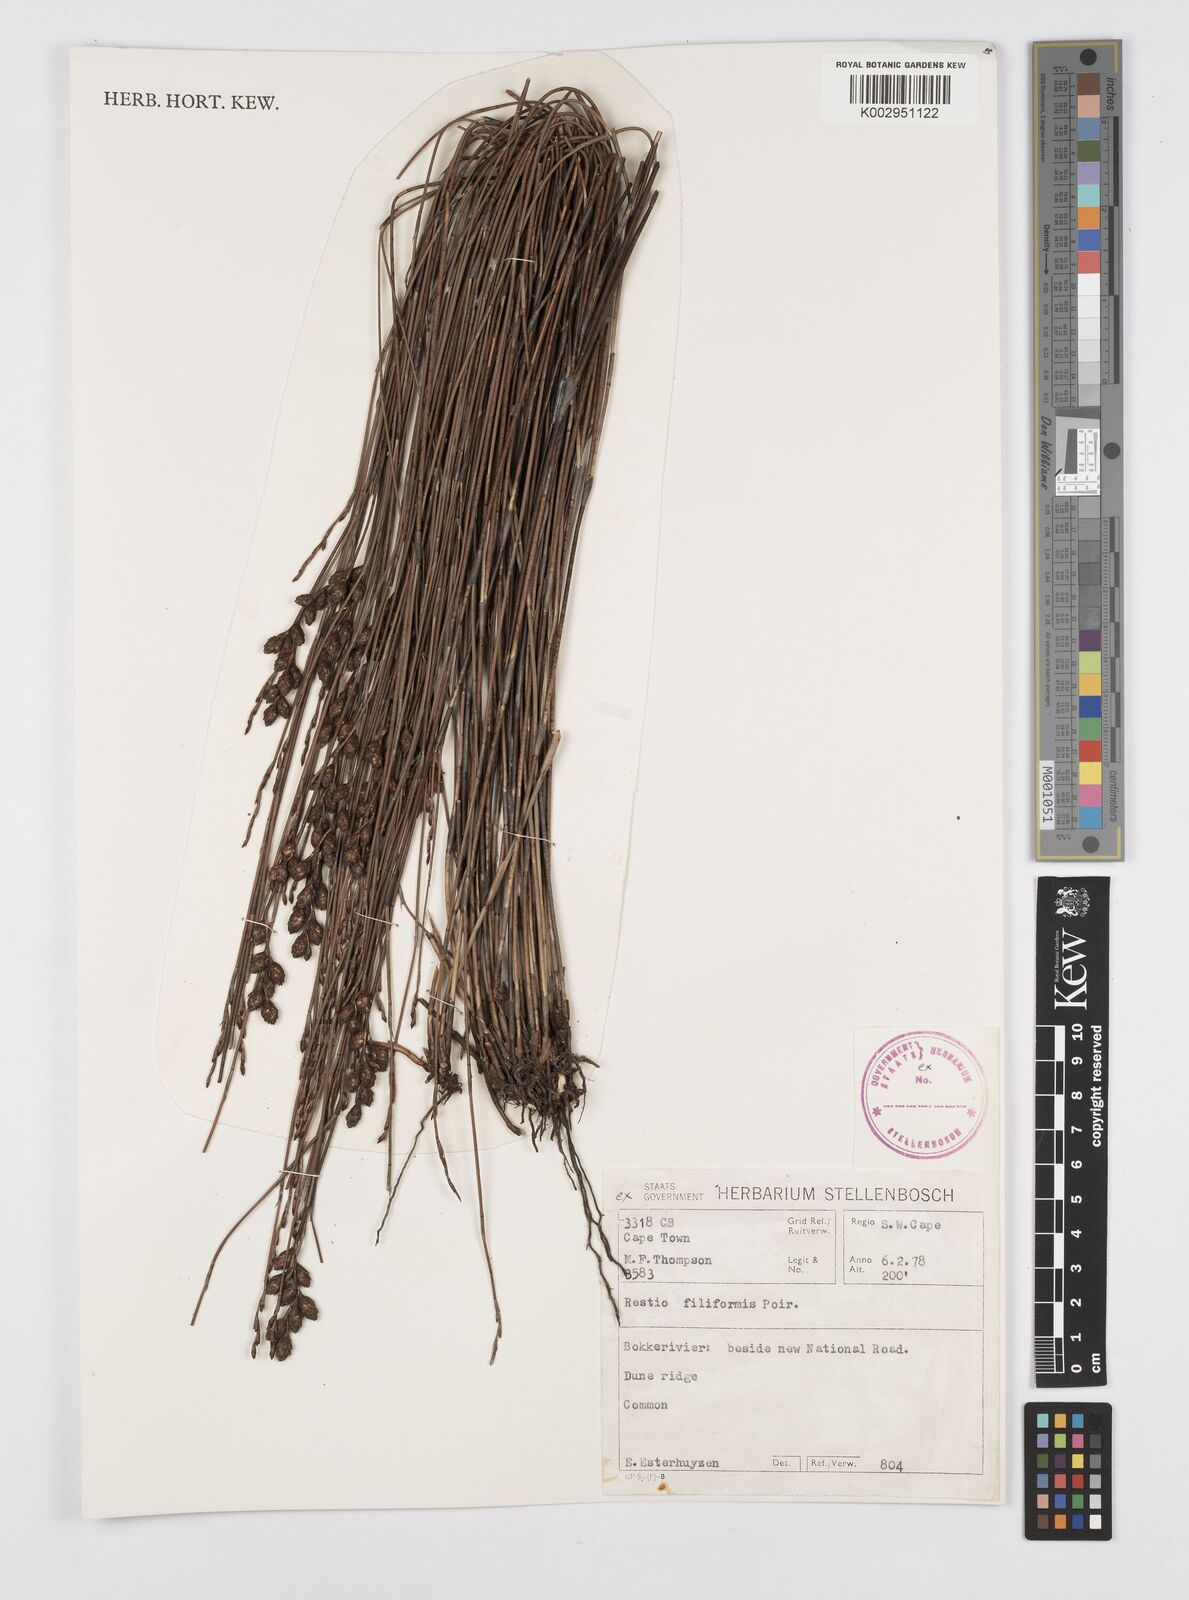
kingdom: Plantae
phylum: Tracheophyta
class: Liliopsida
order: Poales
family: Restionaceae
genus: Restio
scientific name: Restio filiformis
